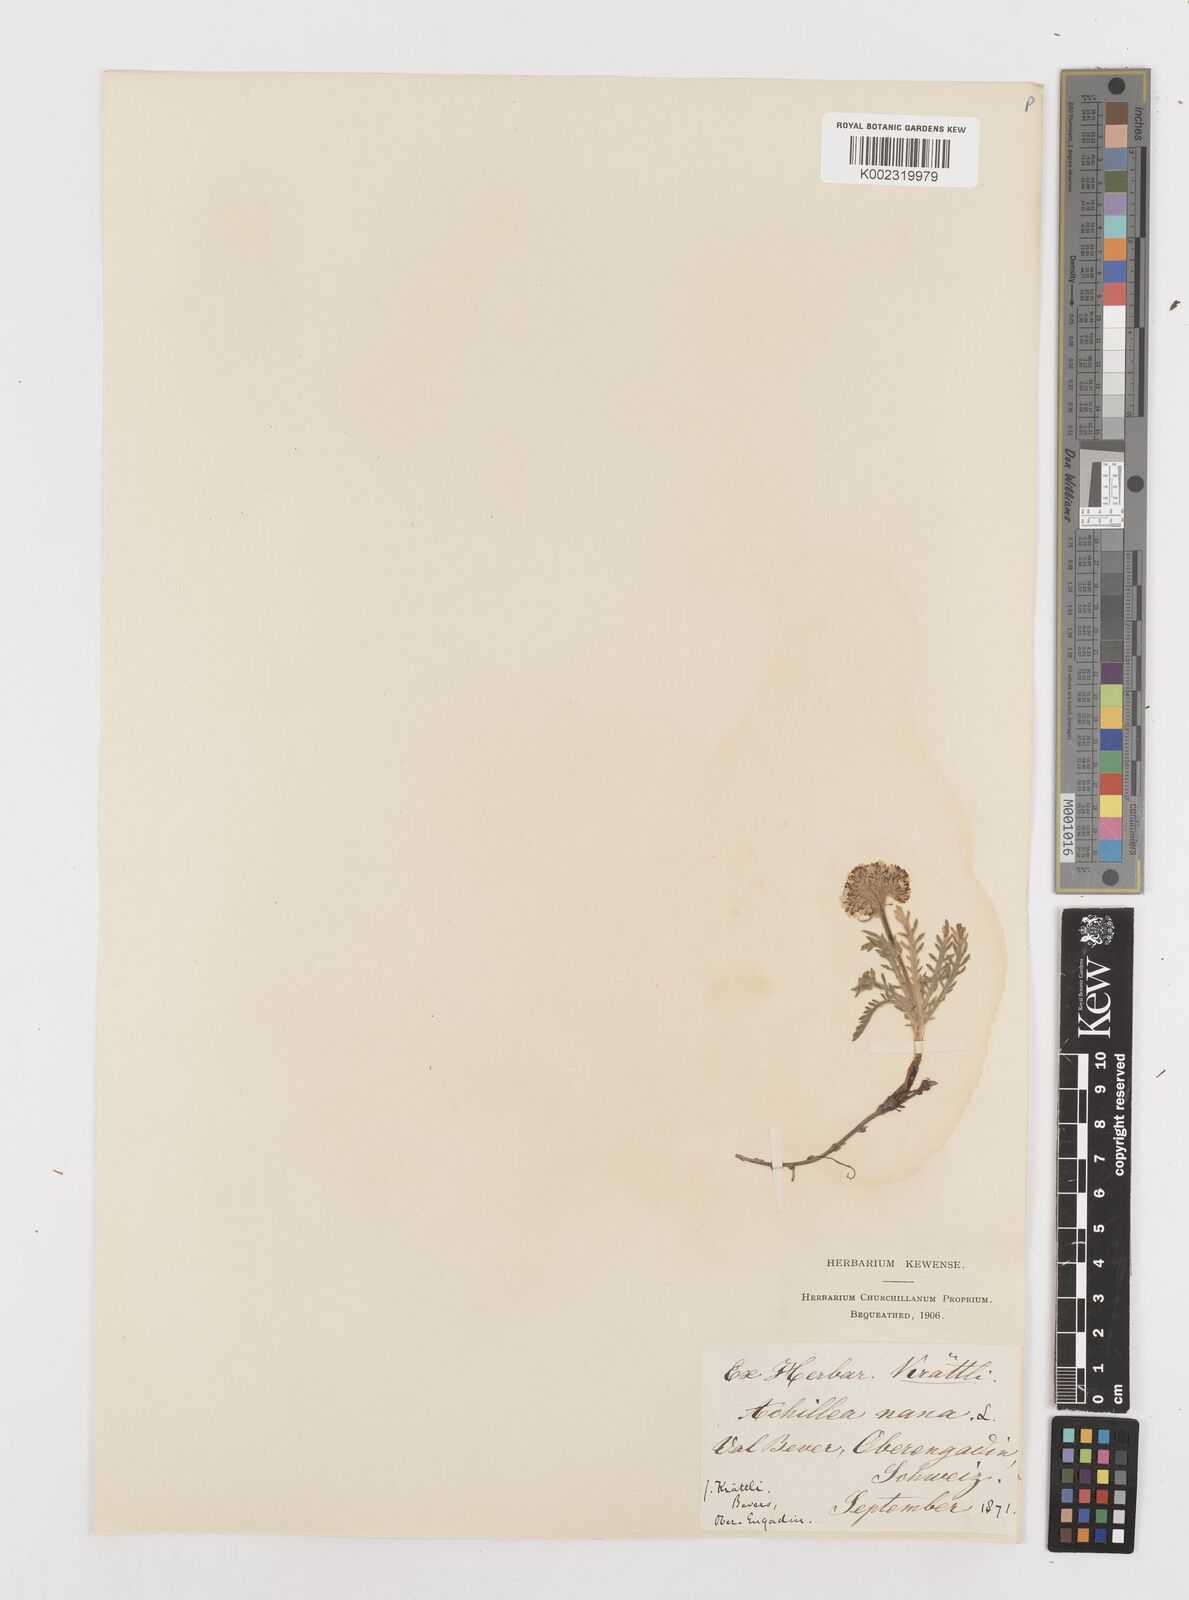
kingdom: Plantae
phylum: Tracheophyta
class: Magnoliopsida
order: Asterales
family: Asteraceae
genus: Achillea
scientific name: Achillea nana
